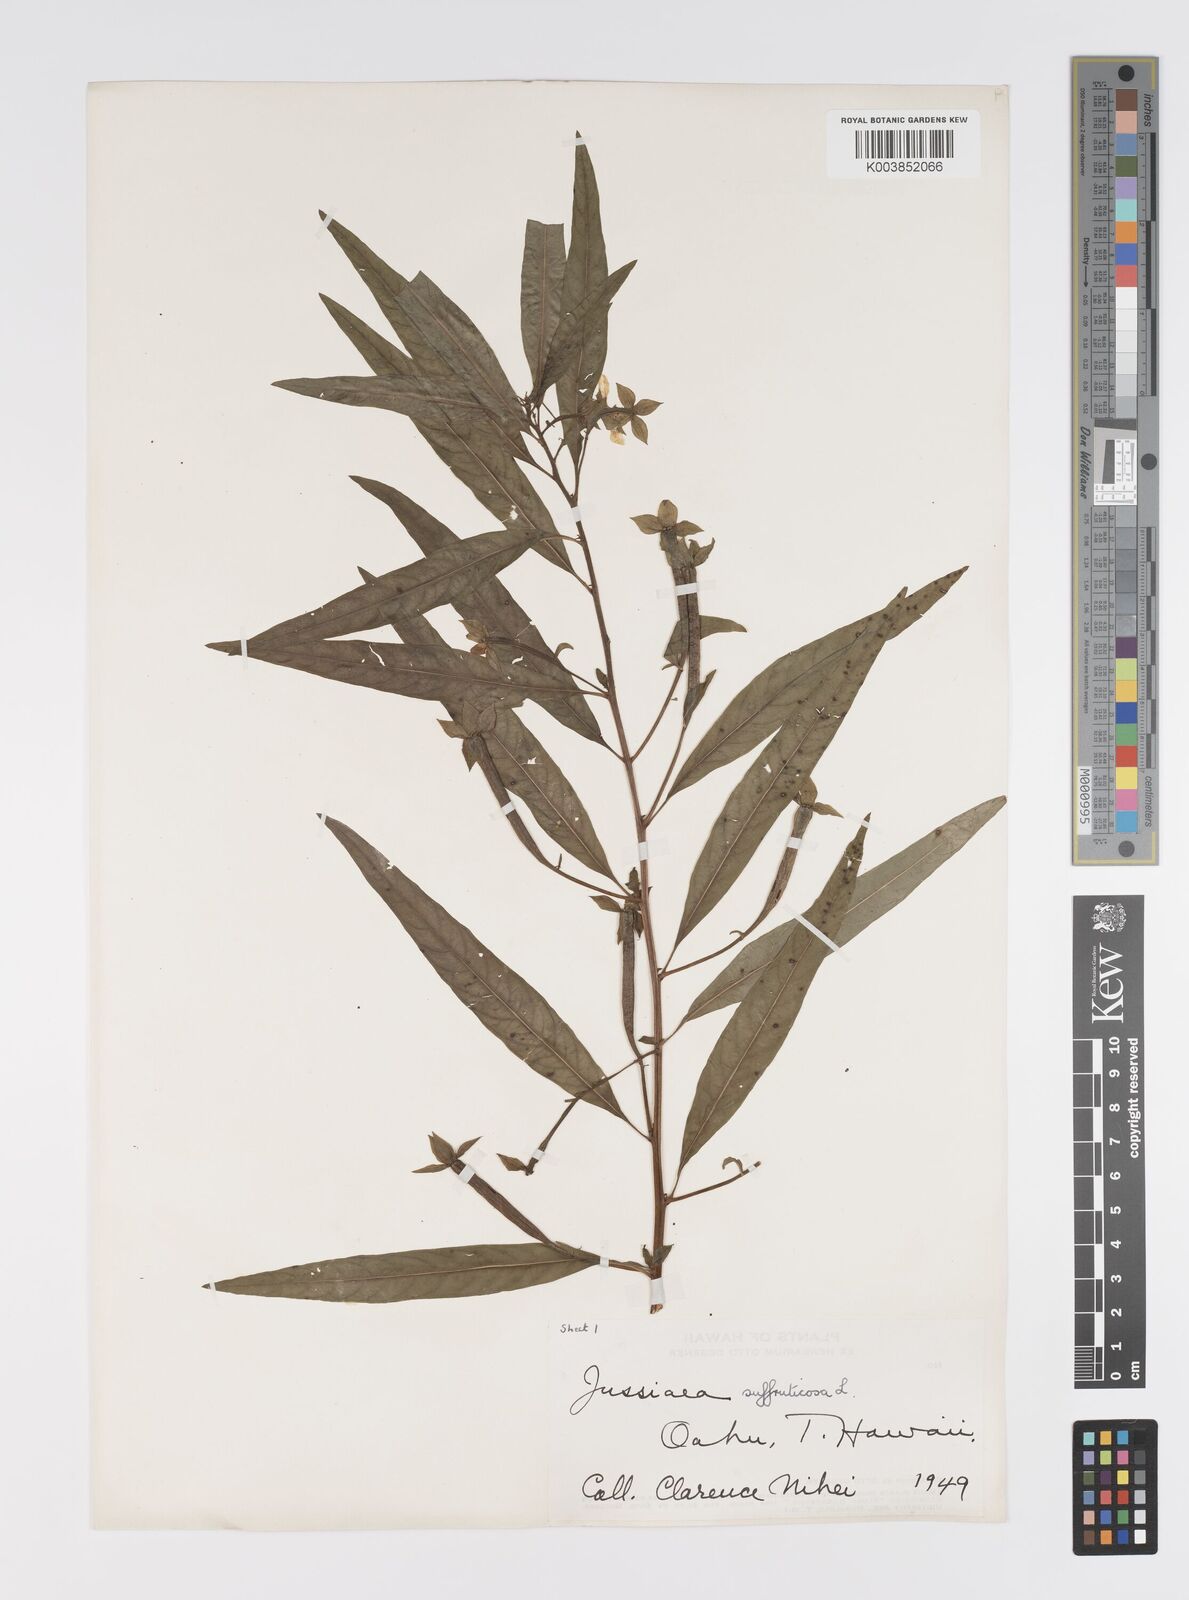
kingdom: Plantae
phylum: Tracheophyta
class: Magnoliopsida
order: Myrtales
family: Onagraceae
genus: Ludwigia
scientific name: Ludwigia octovalvis
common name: Water-primrose
